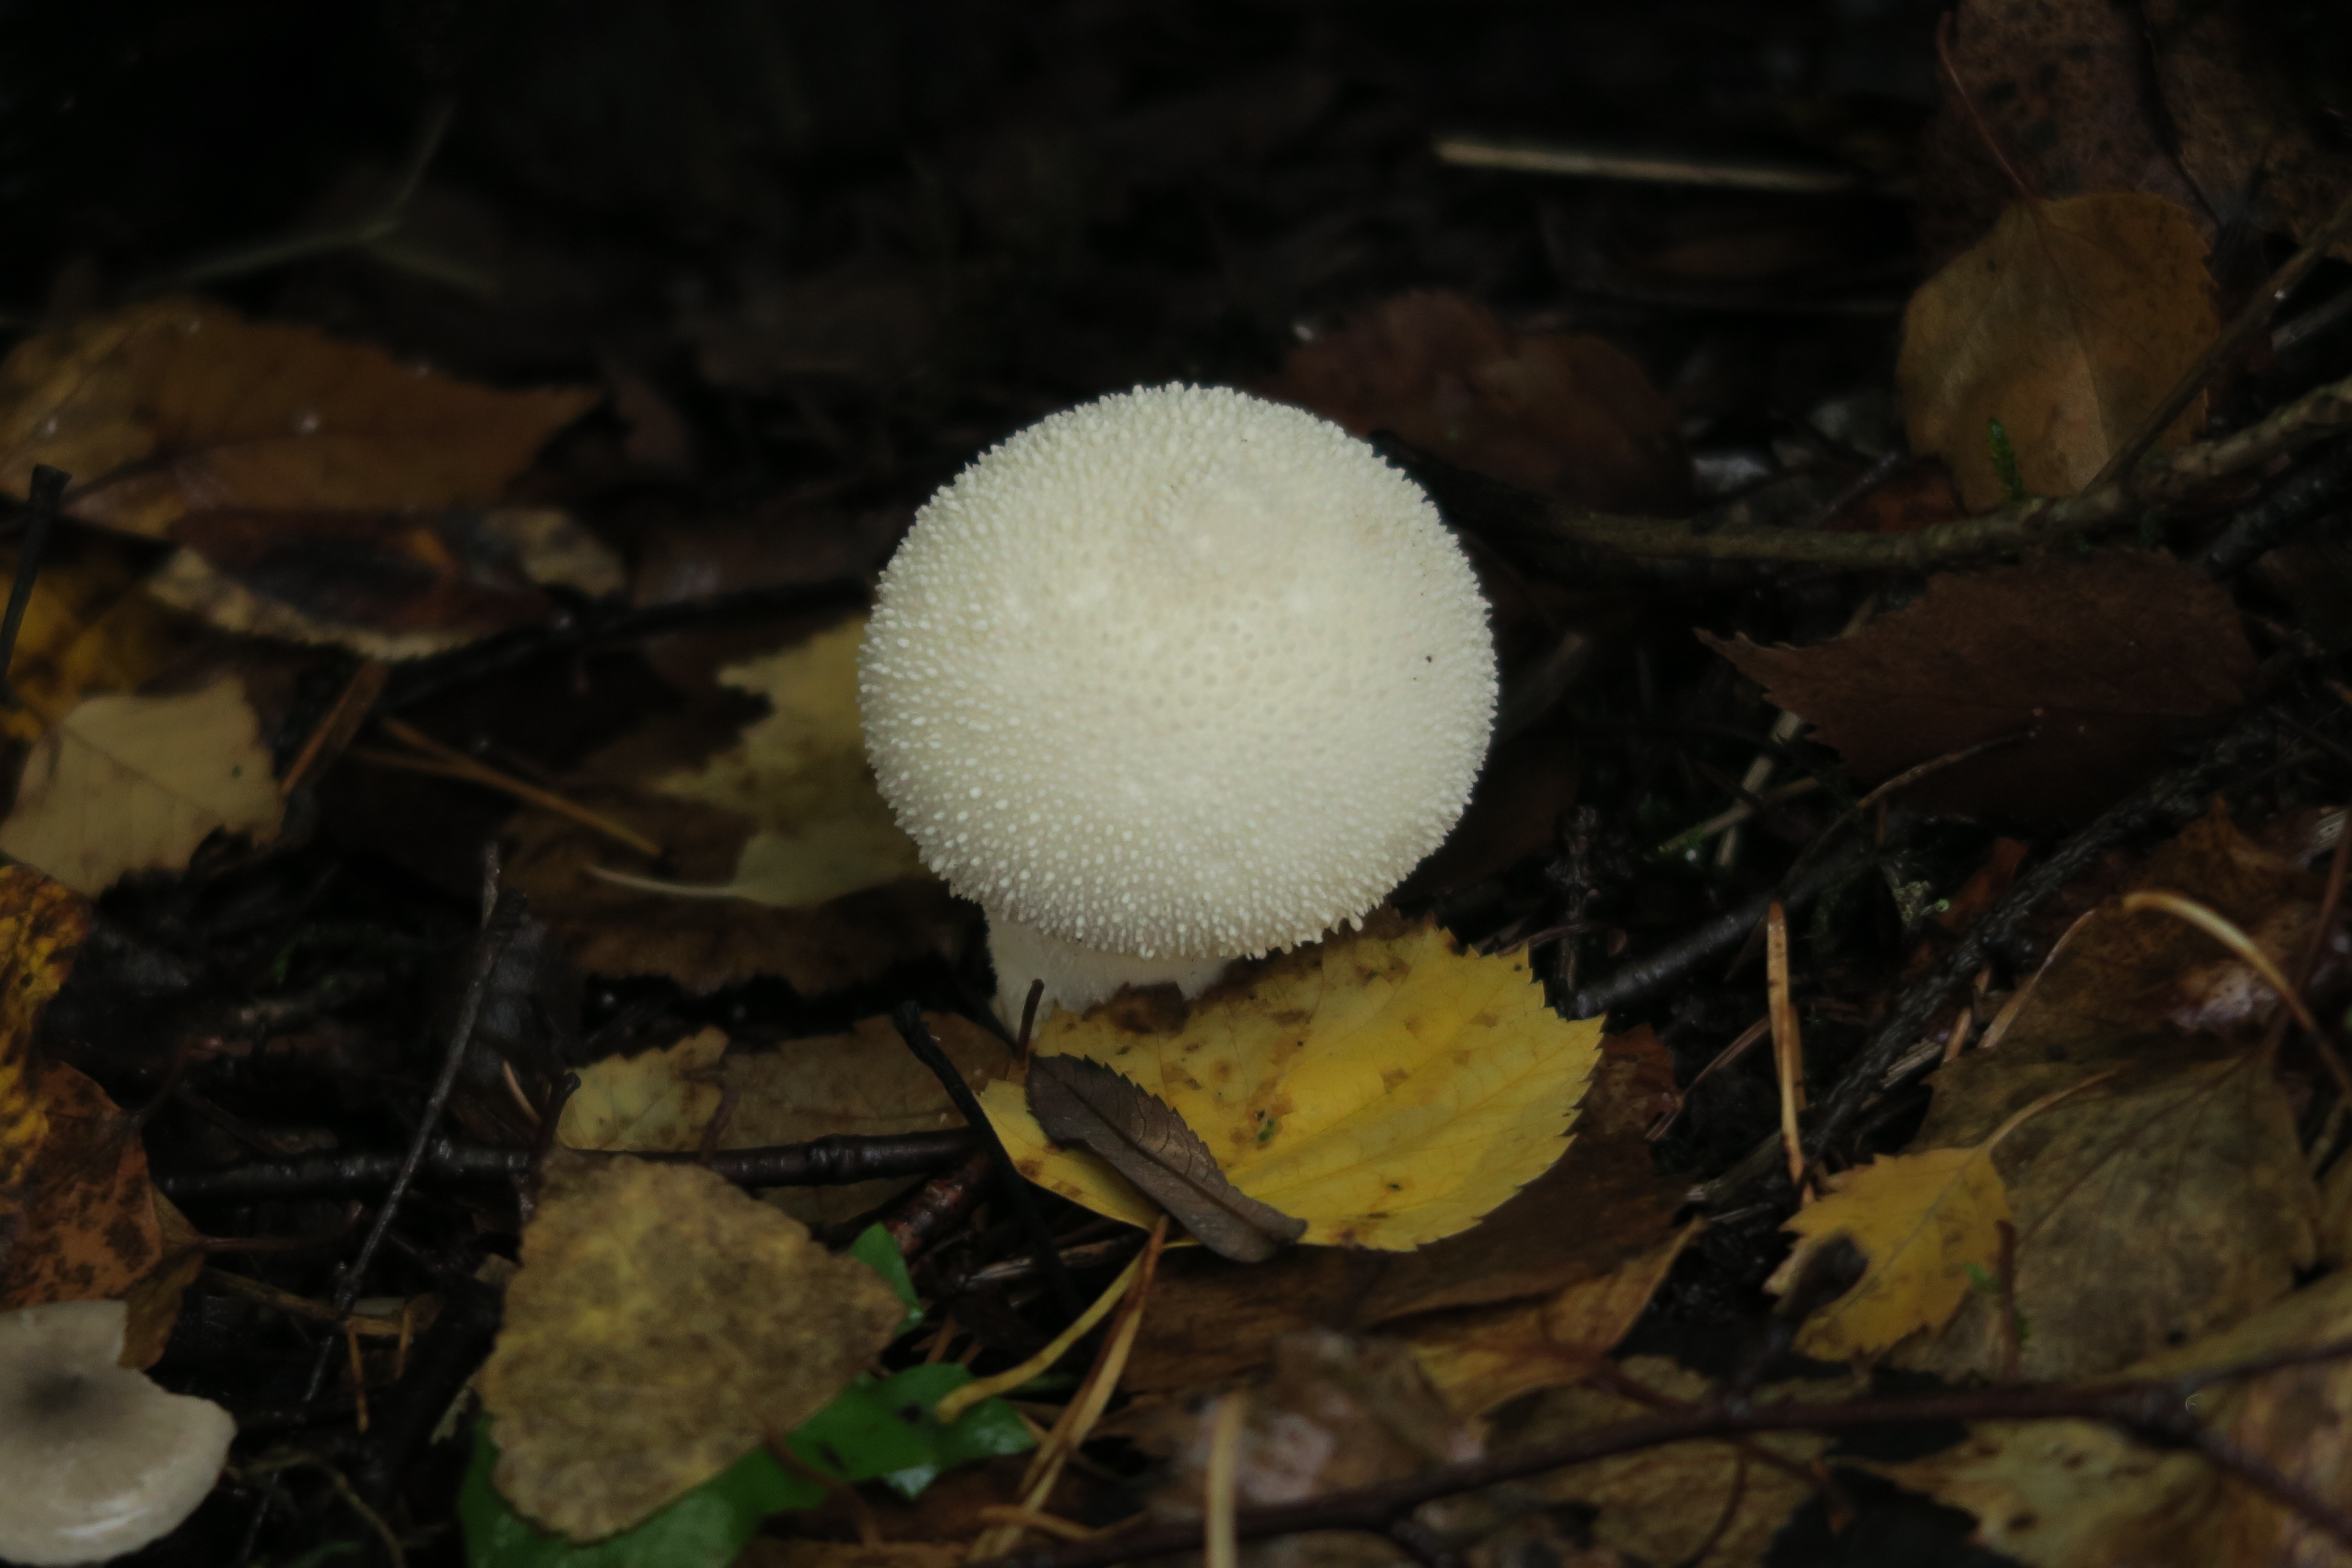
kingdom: Fungi
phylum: Basidiomycota
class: Agaricomycetes
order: Agaricales
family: Lycoperdaceae
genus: Lycoperdon
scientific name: Lycoperdon perlatum
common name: Common puffball
